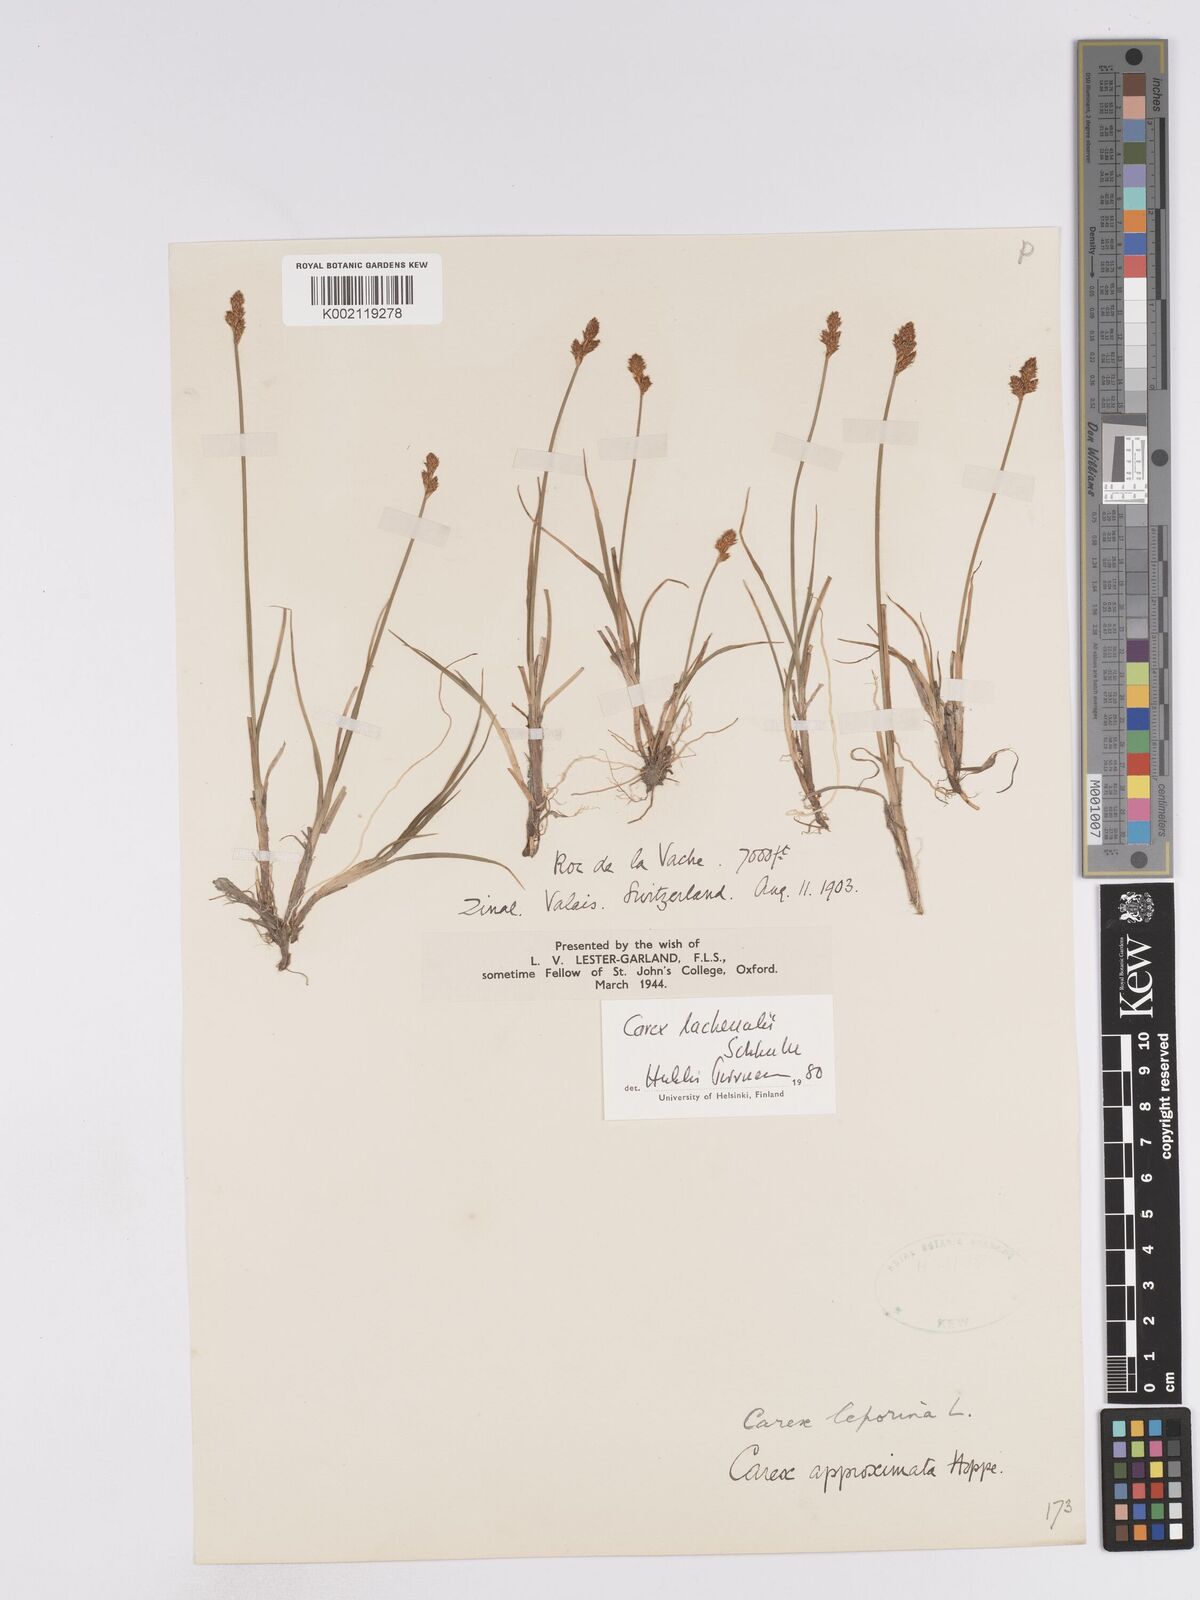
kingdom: Plantae
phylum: Tracheophyta
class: Liliopsida
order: Poales
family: Cyperaceae
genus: Carex
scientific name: Carex lachenalii
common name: Hare's-foot sedge
